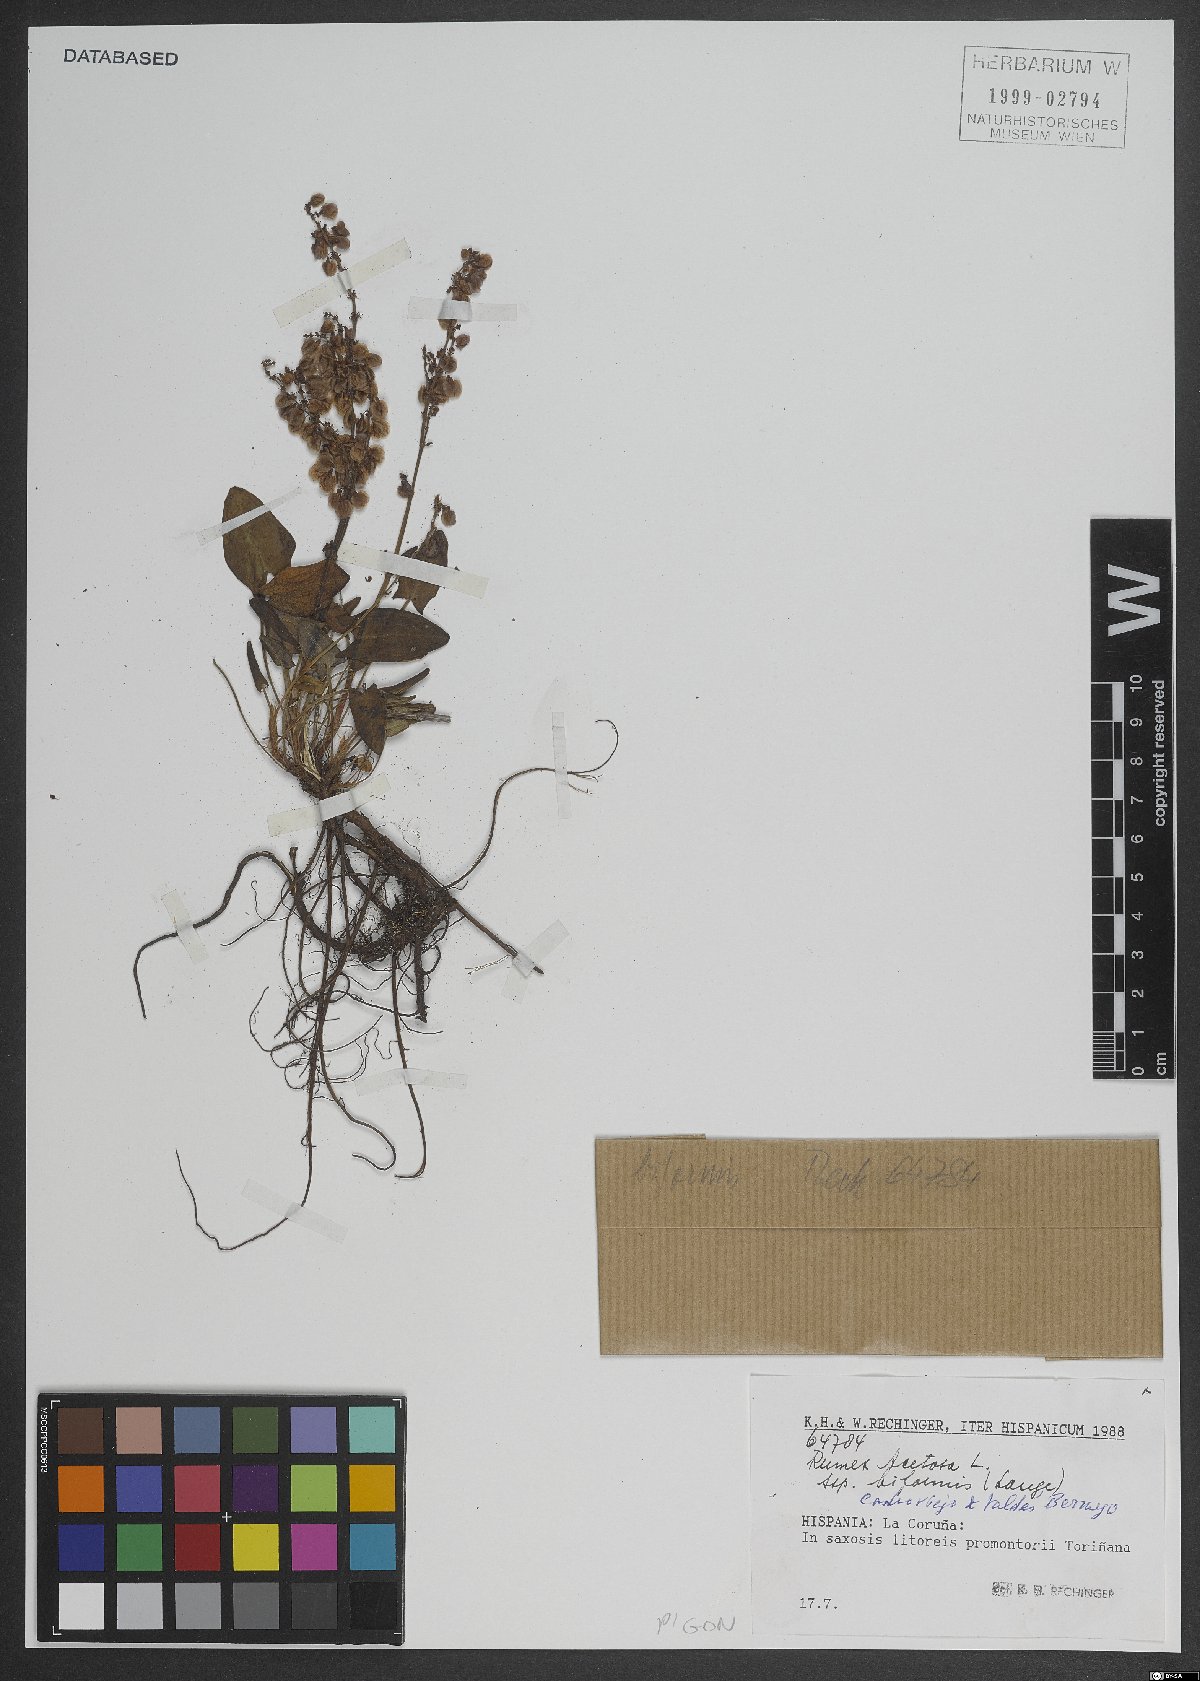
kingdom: Plantae
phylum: Tracheophyta
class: Magnoliopsida
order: Caryophyllales
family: Polygonaceae
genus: Rumex
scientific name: Rumex acetosa
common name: Garden sorrel
